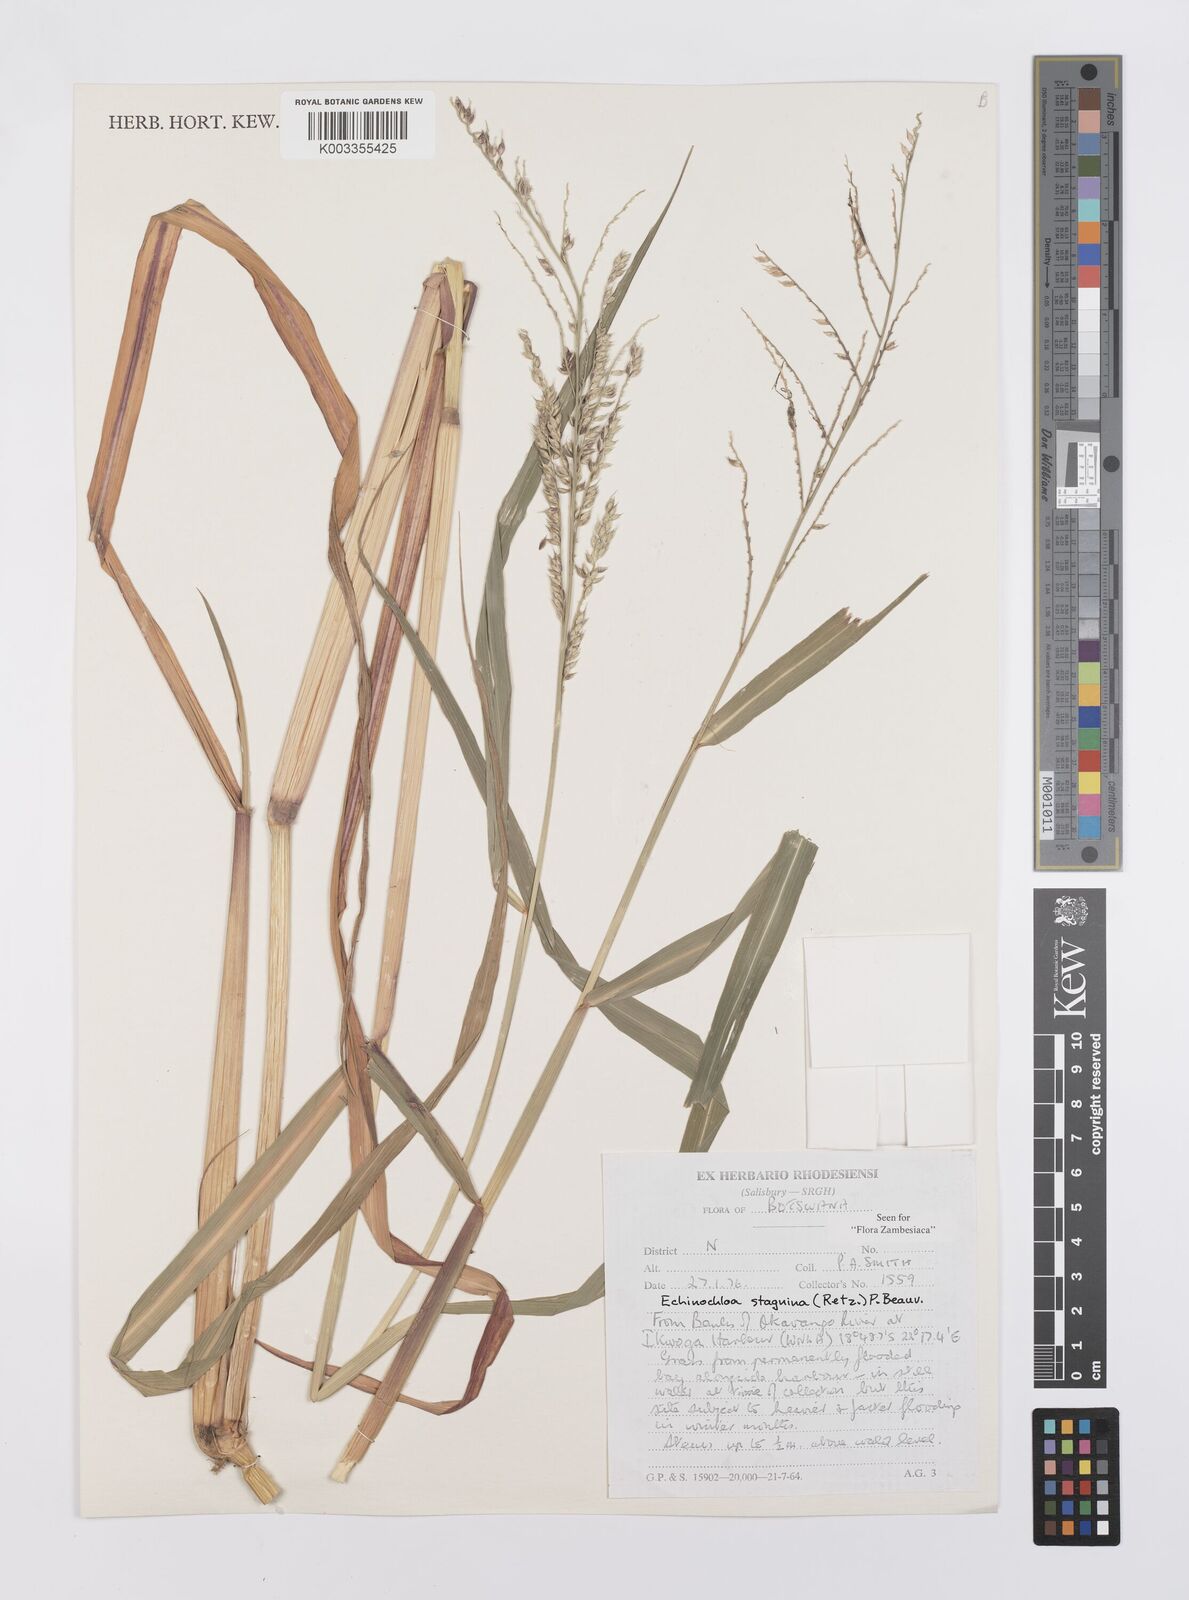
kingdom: Plantae
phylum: Tracheophyta
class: Liliopsida
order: Poales
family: Poaceae
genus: Echinochloa
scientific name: Echinochloa stagnina
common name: Burgu grass
